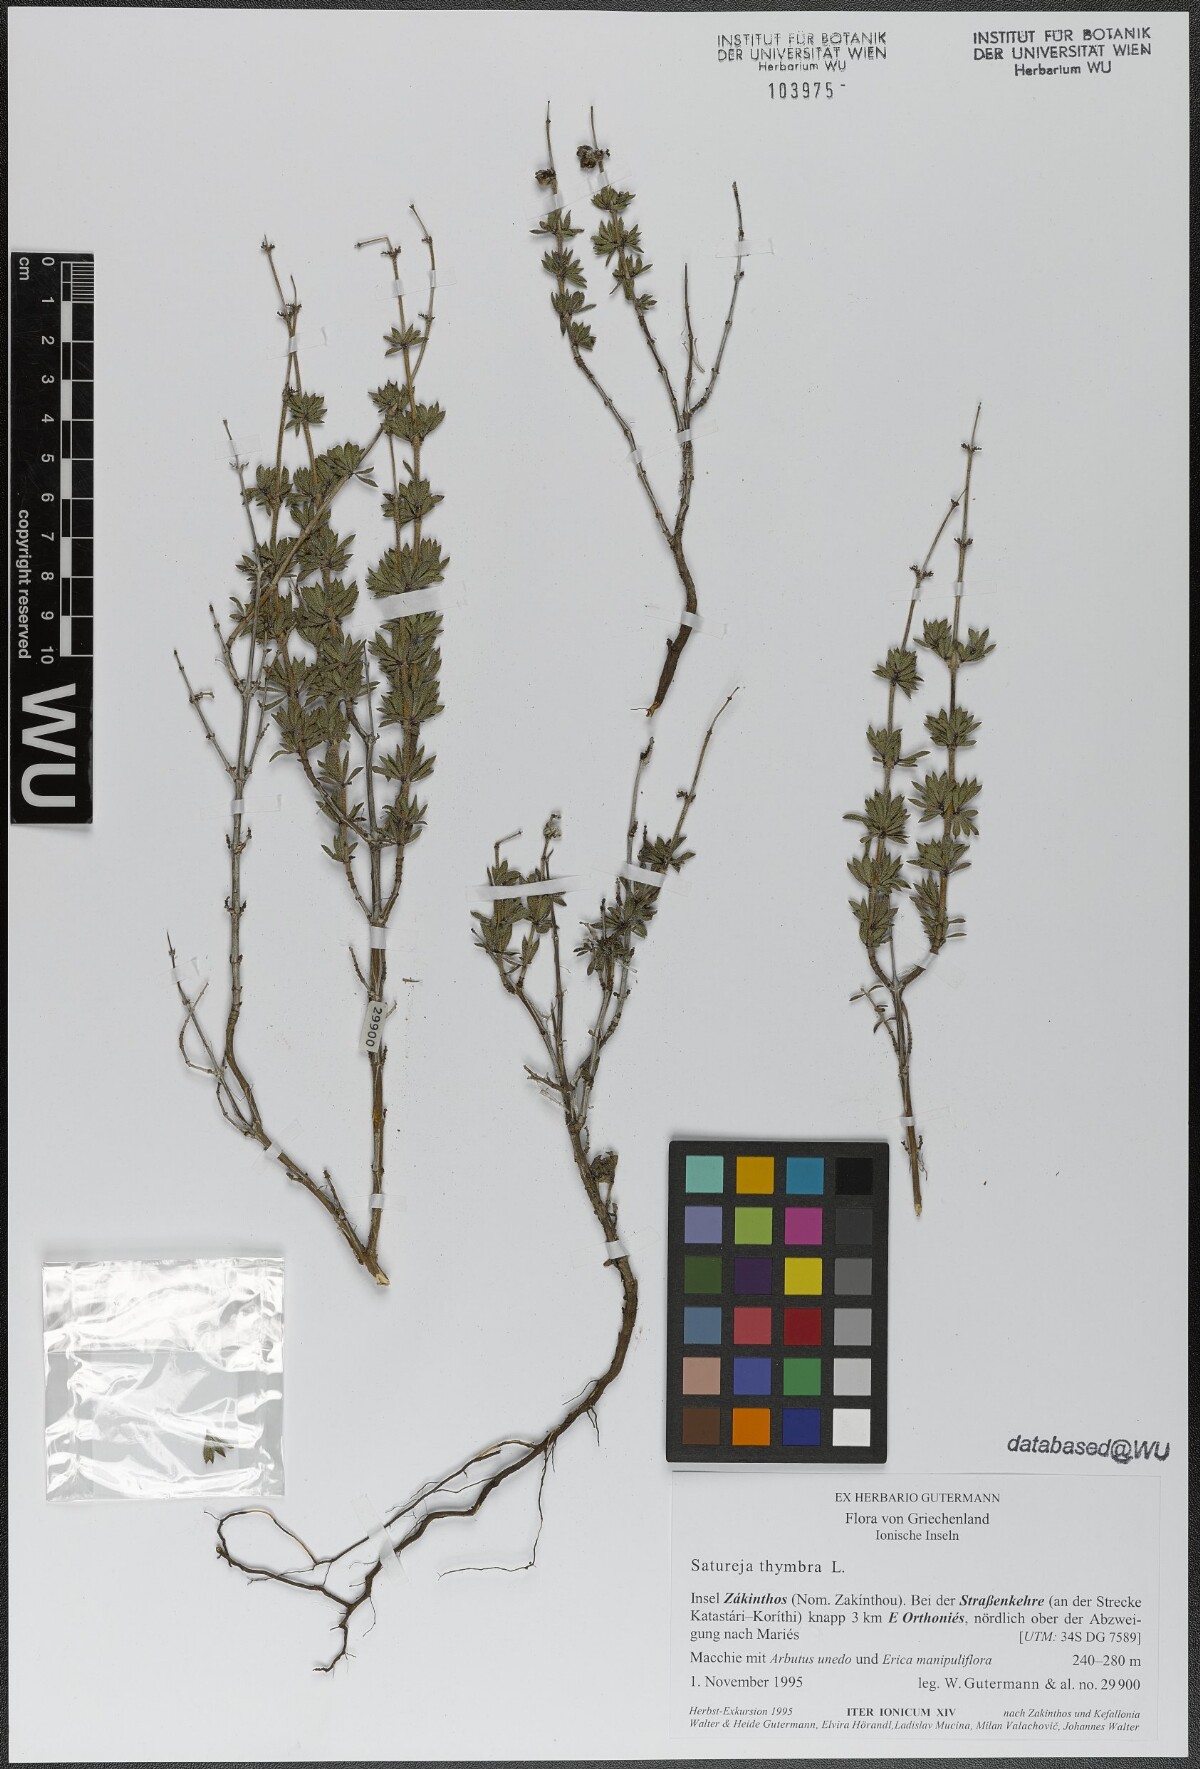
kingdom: Plantae
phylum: Tracheophyta
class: Magnoliopsida
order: Lamiales
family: Lamiaceae
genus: Satureja
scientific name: Satureja thymbra
